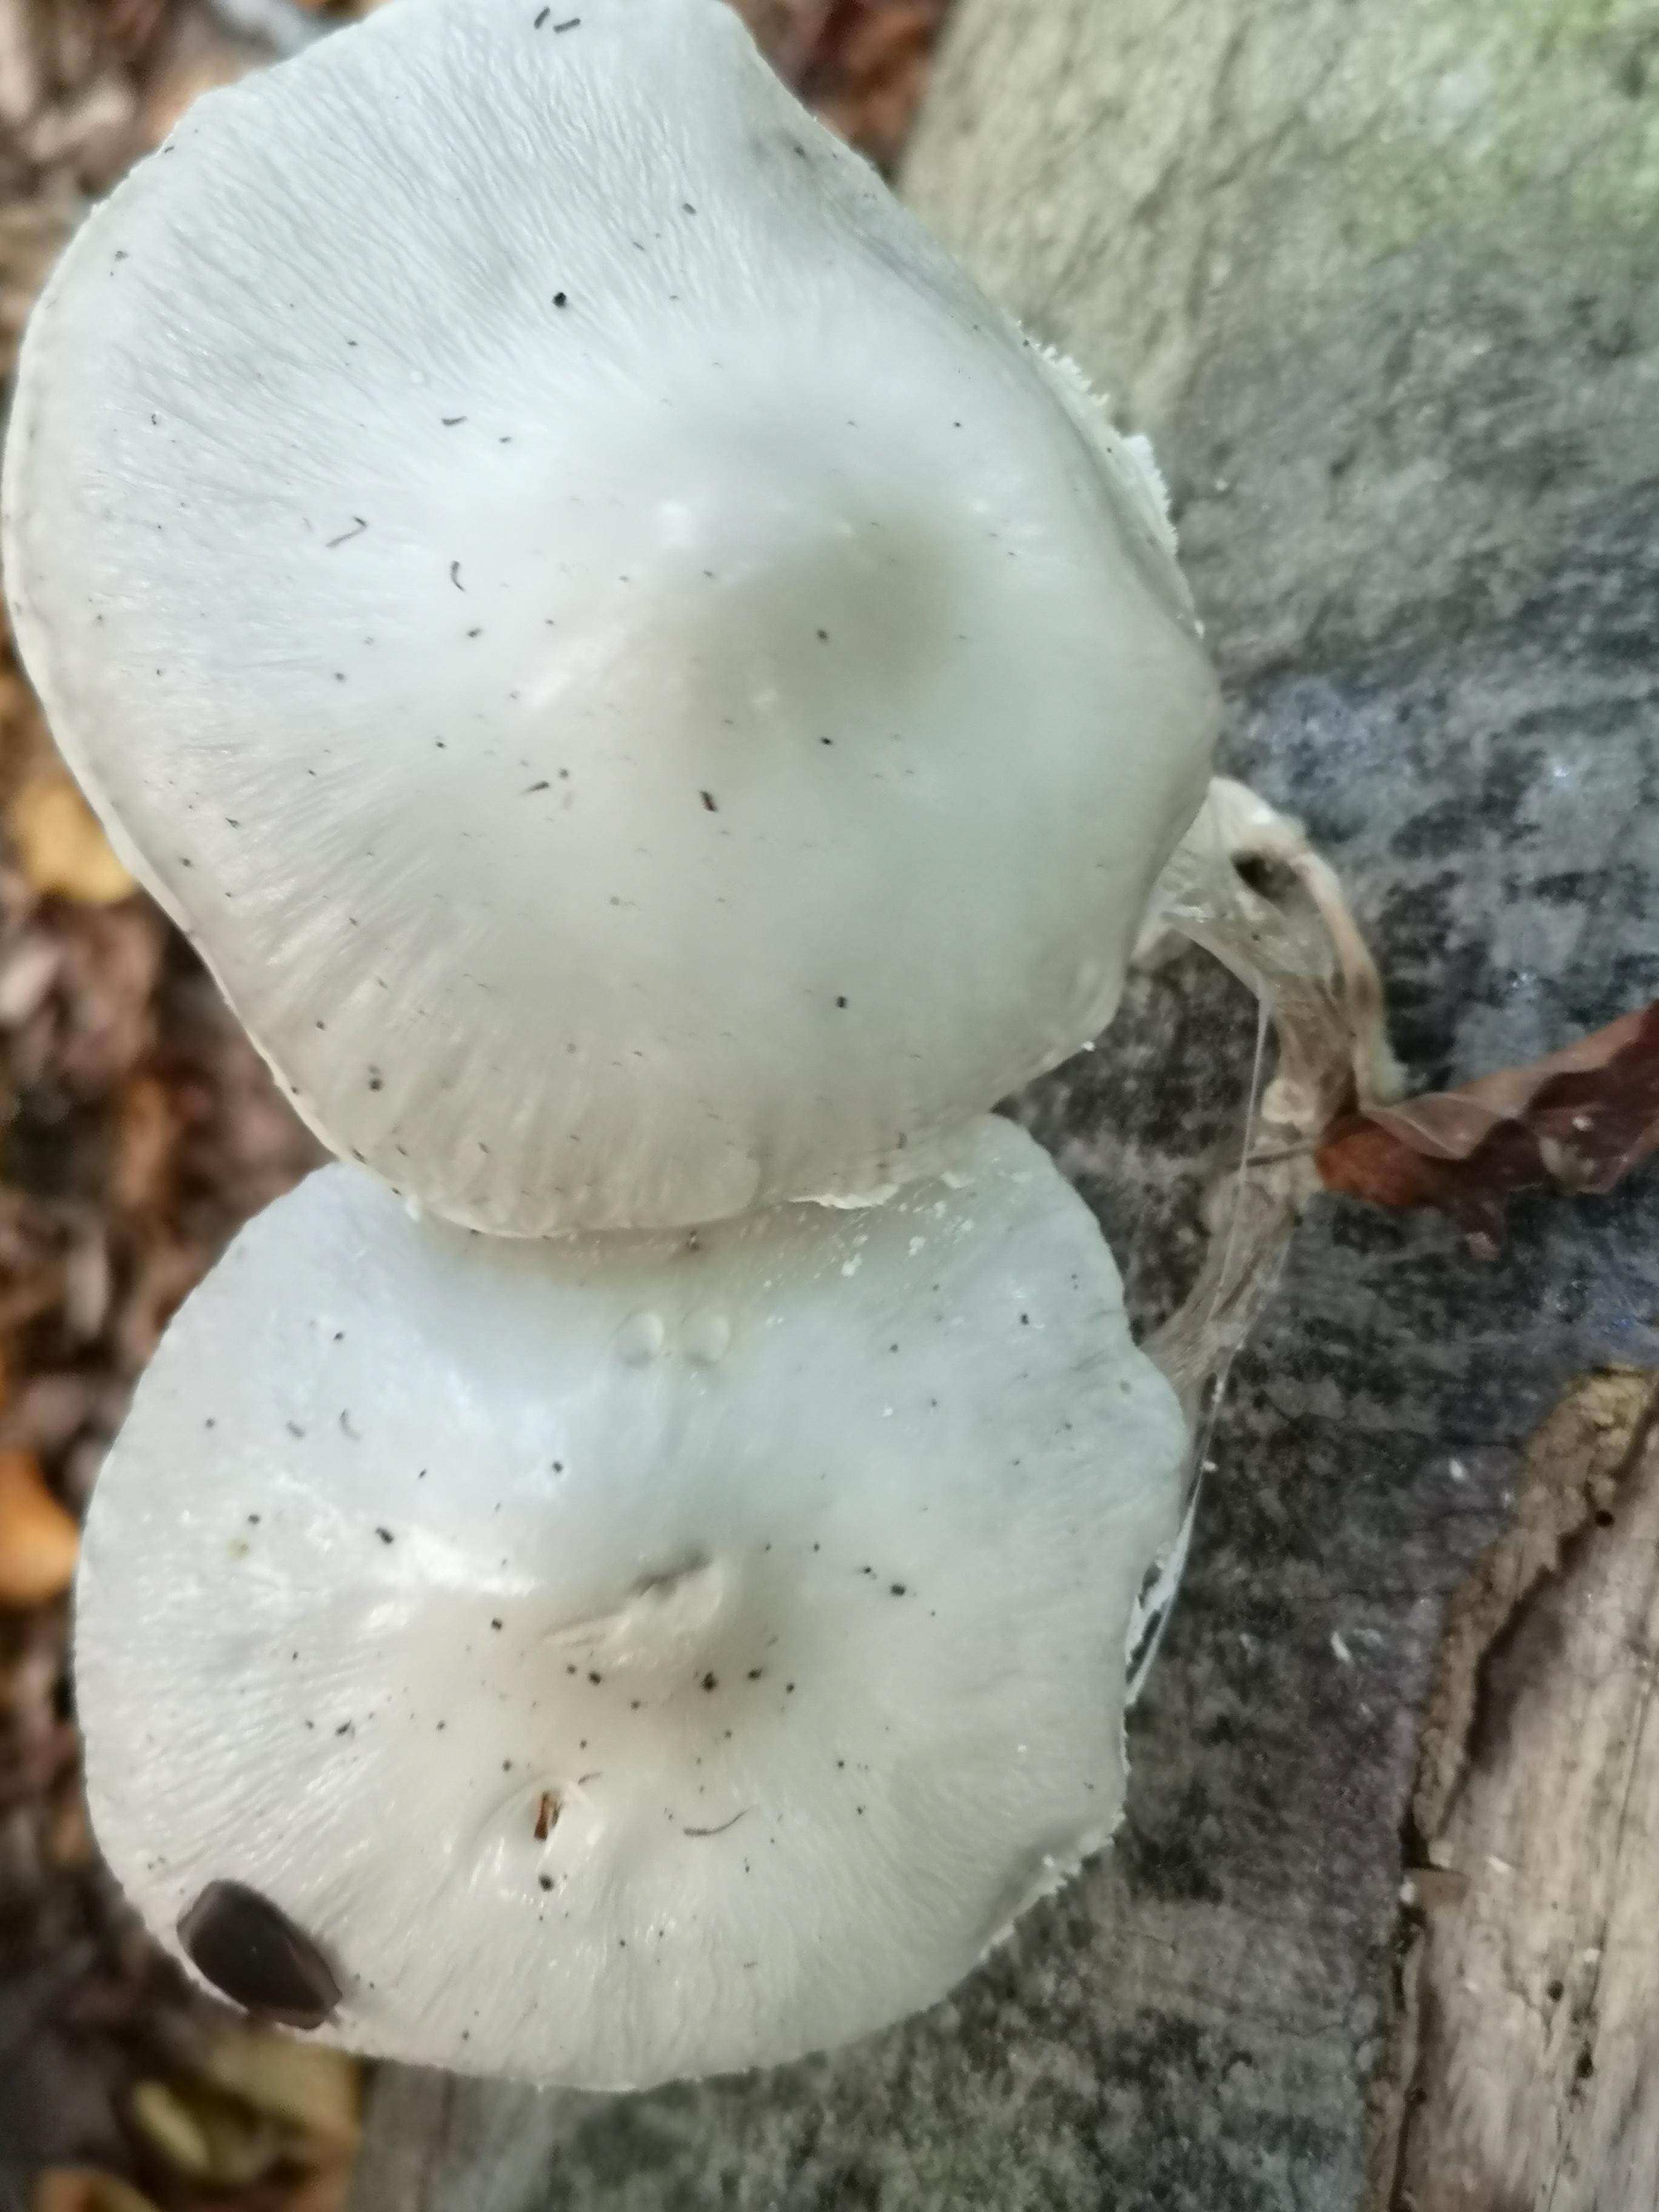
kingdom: Fungi
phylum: Basidiomycota
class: Agaricomycetes
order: Agaricales
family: Physalacriaceae
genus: Mucidula
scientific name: Mucidula mucida
